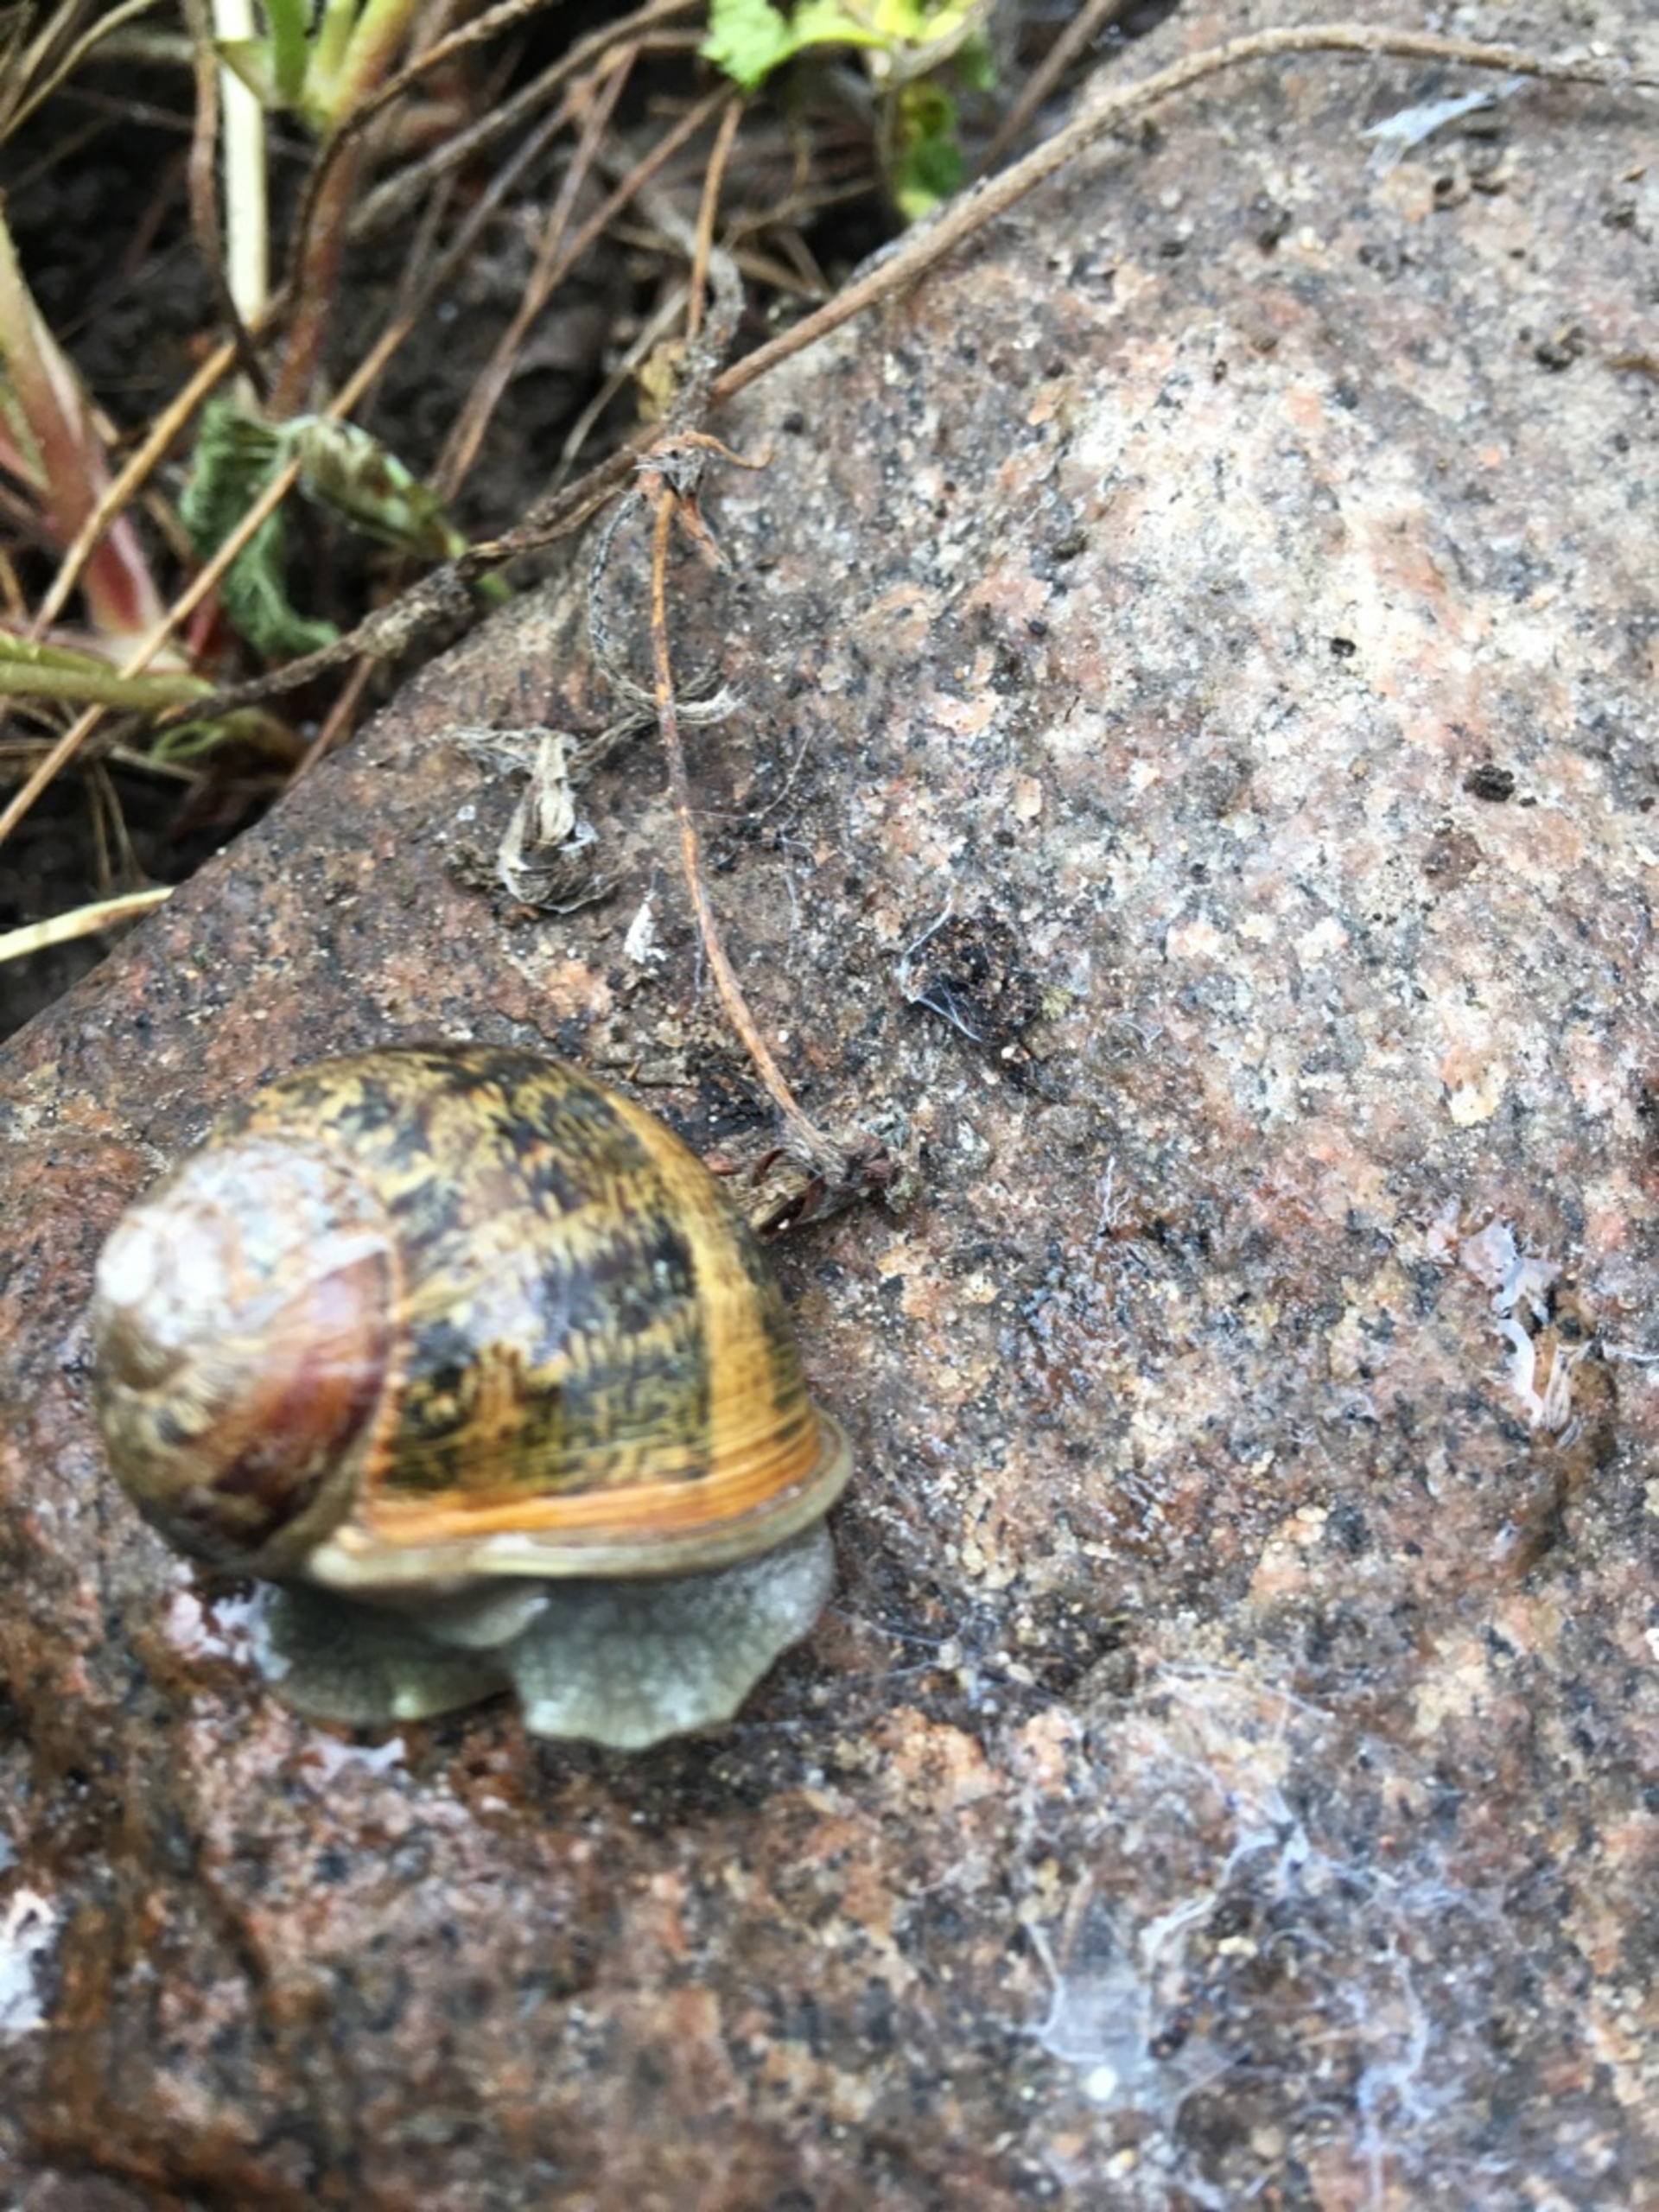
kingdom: Animalia
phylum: Mollusca
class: Gastropoda
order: Stylommatophora
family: Helicidae
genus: Cornu
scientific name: Cornu aspersum
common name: Plettet voldsnegl
